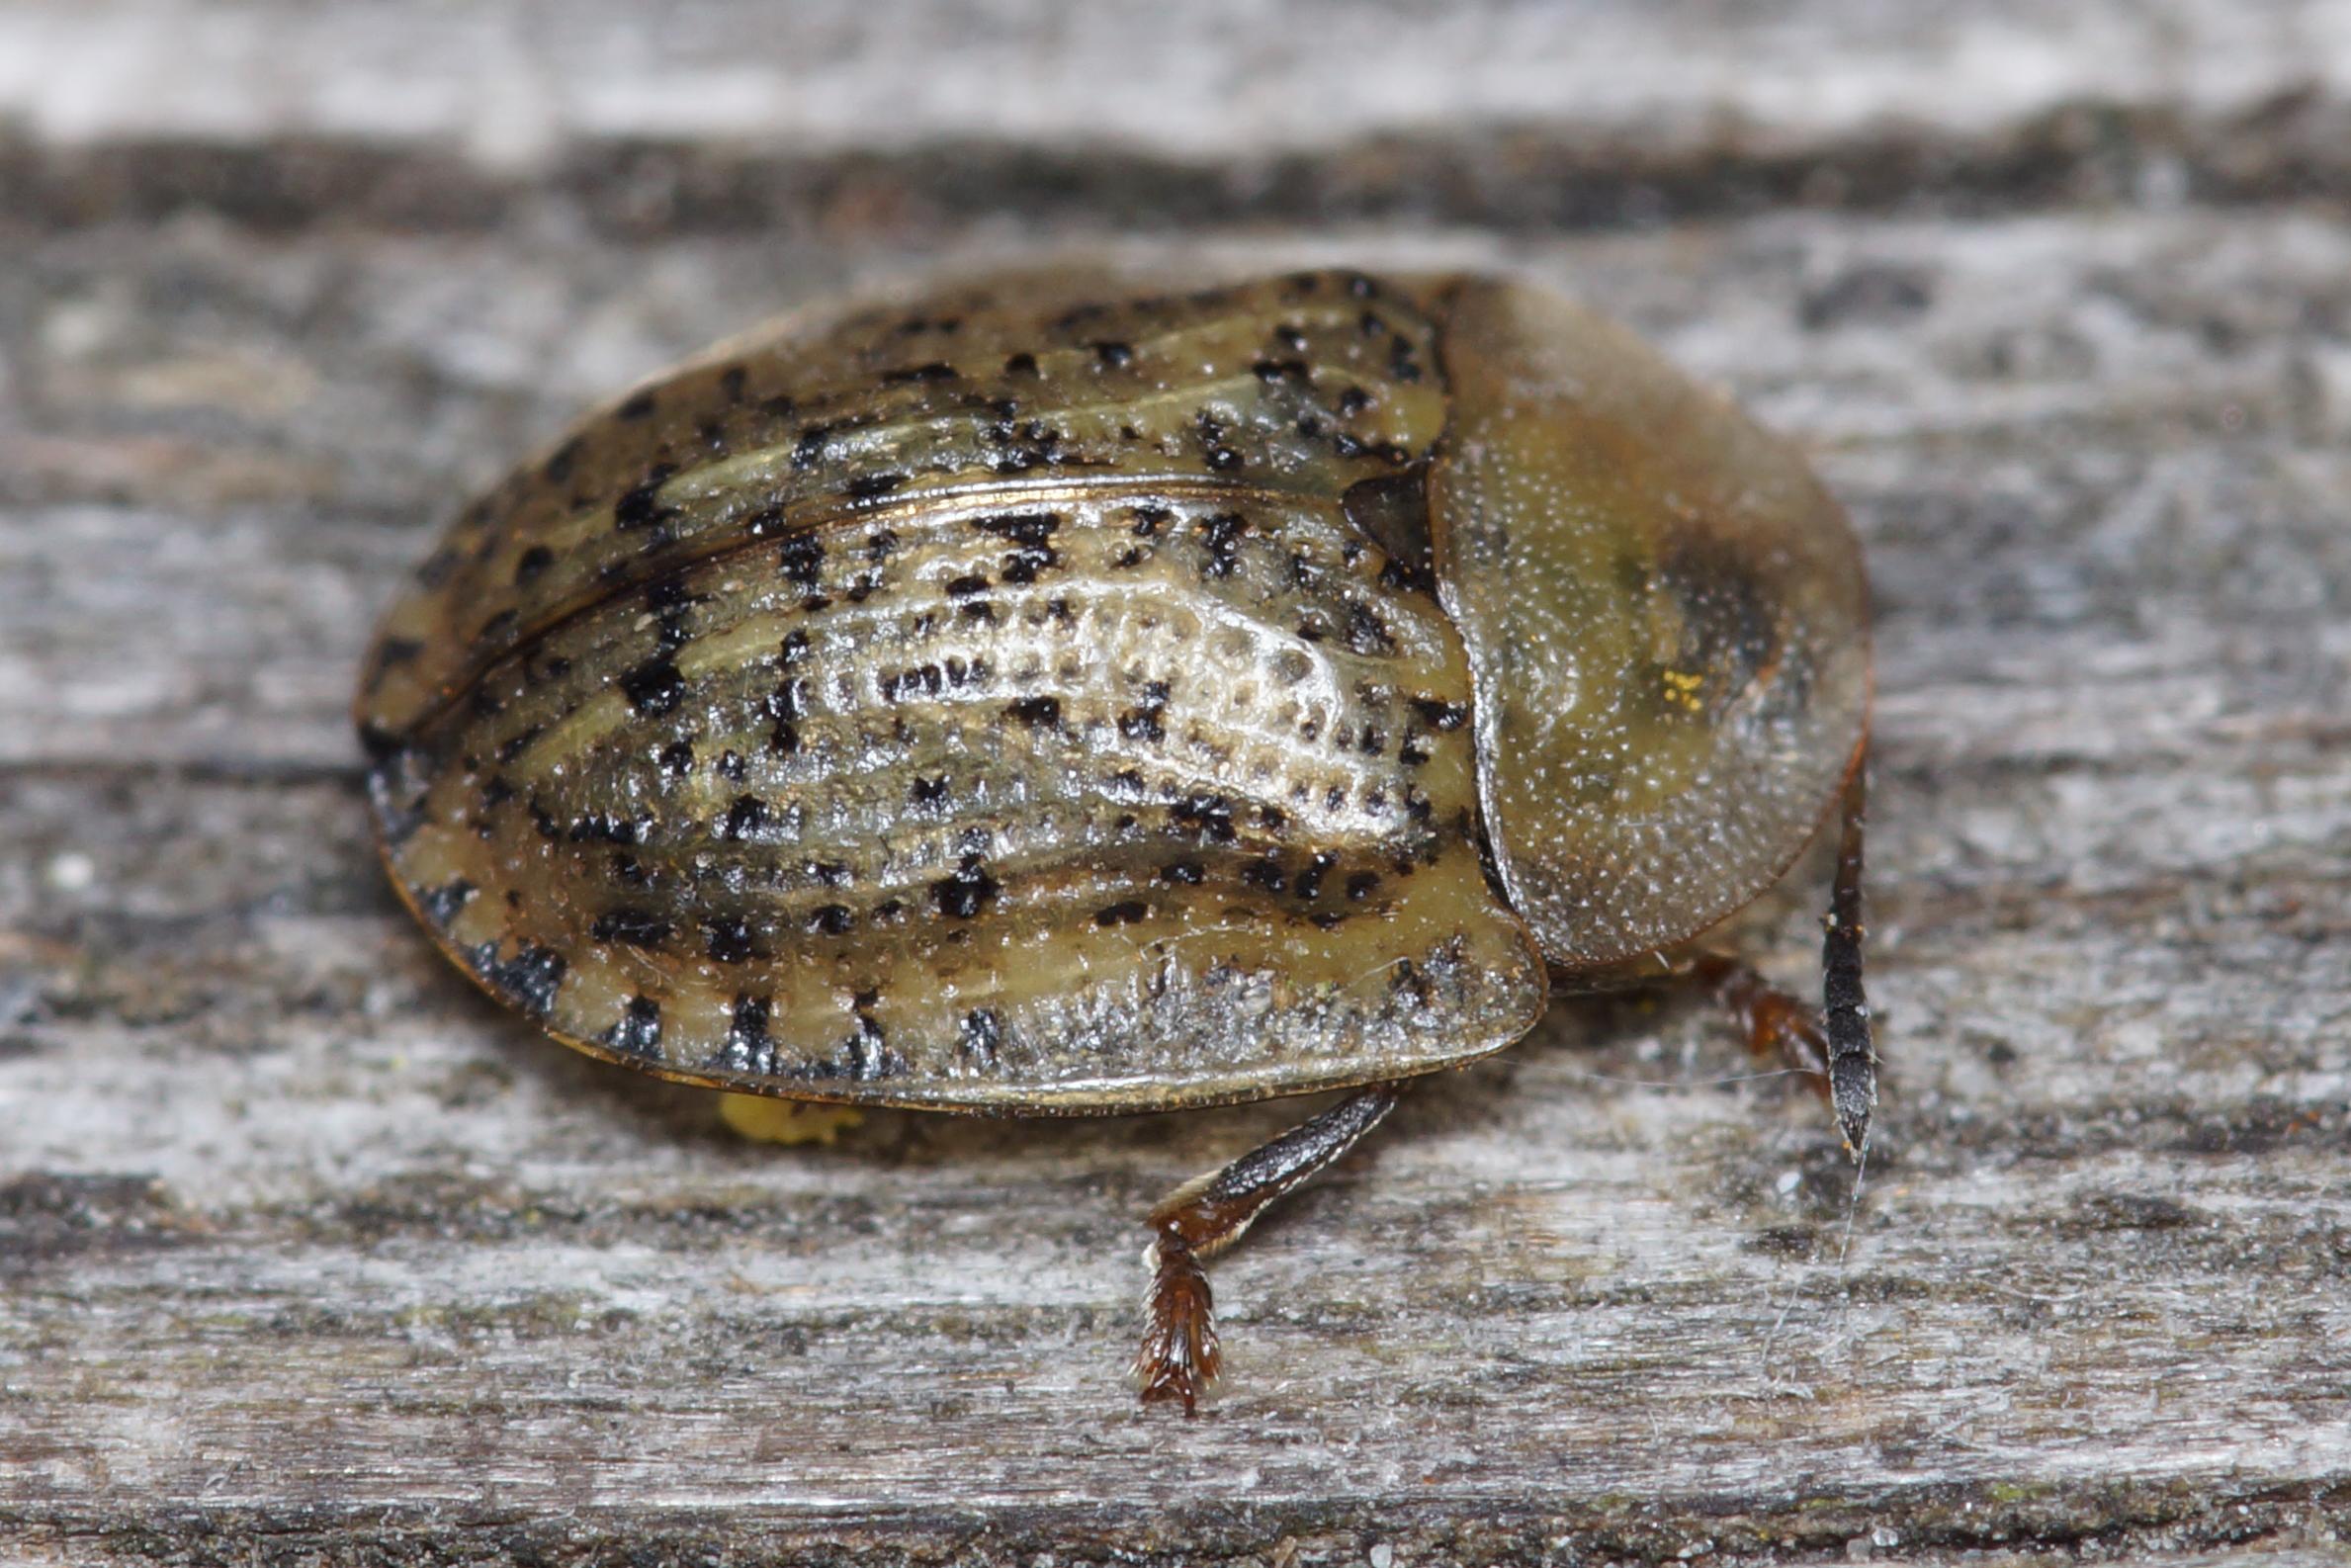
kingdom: Animalia
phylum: Arthropoda
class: Insecta
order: Coleoptera
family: Chrysomelidae
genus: Cassida
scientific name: Cassida nebulosa
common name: Plettet skjoldbille
